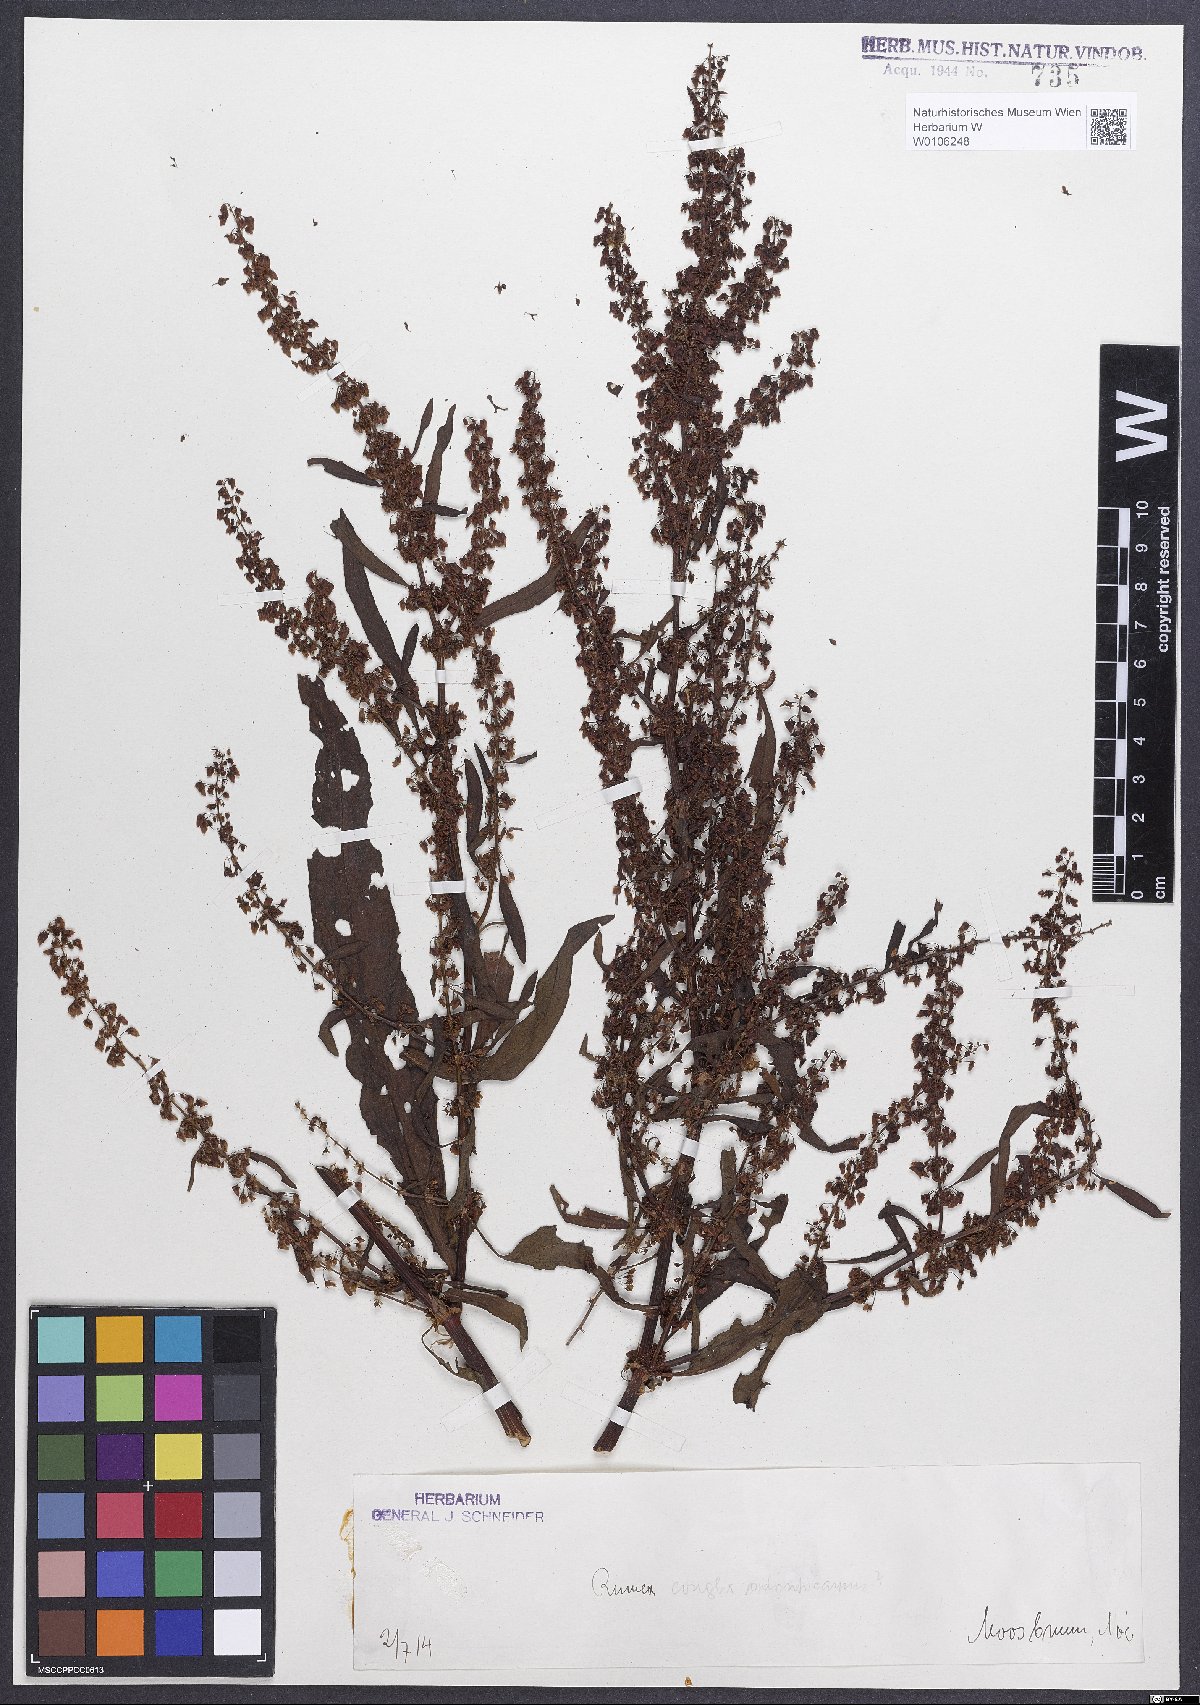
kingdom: Plantae
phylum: Tracheophyta
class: Magnoliopsida
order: Caryophyllales
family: Polygonaceae
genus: Rumex
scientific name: Rumex
